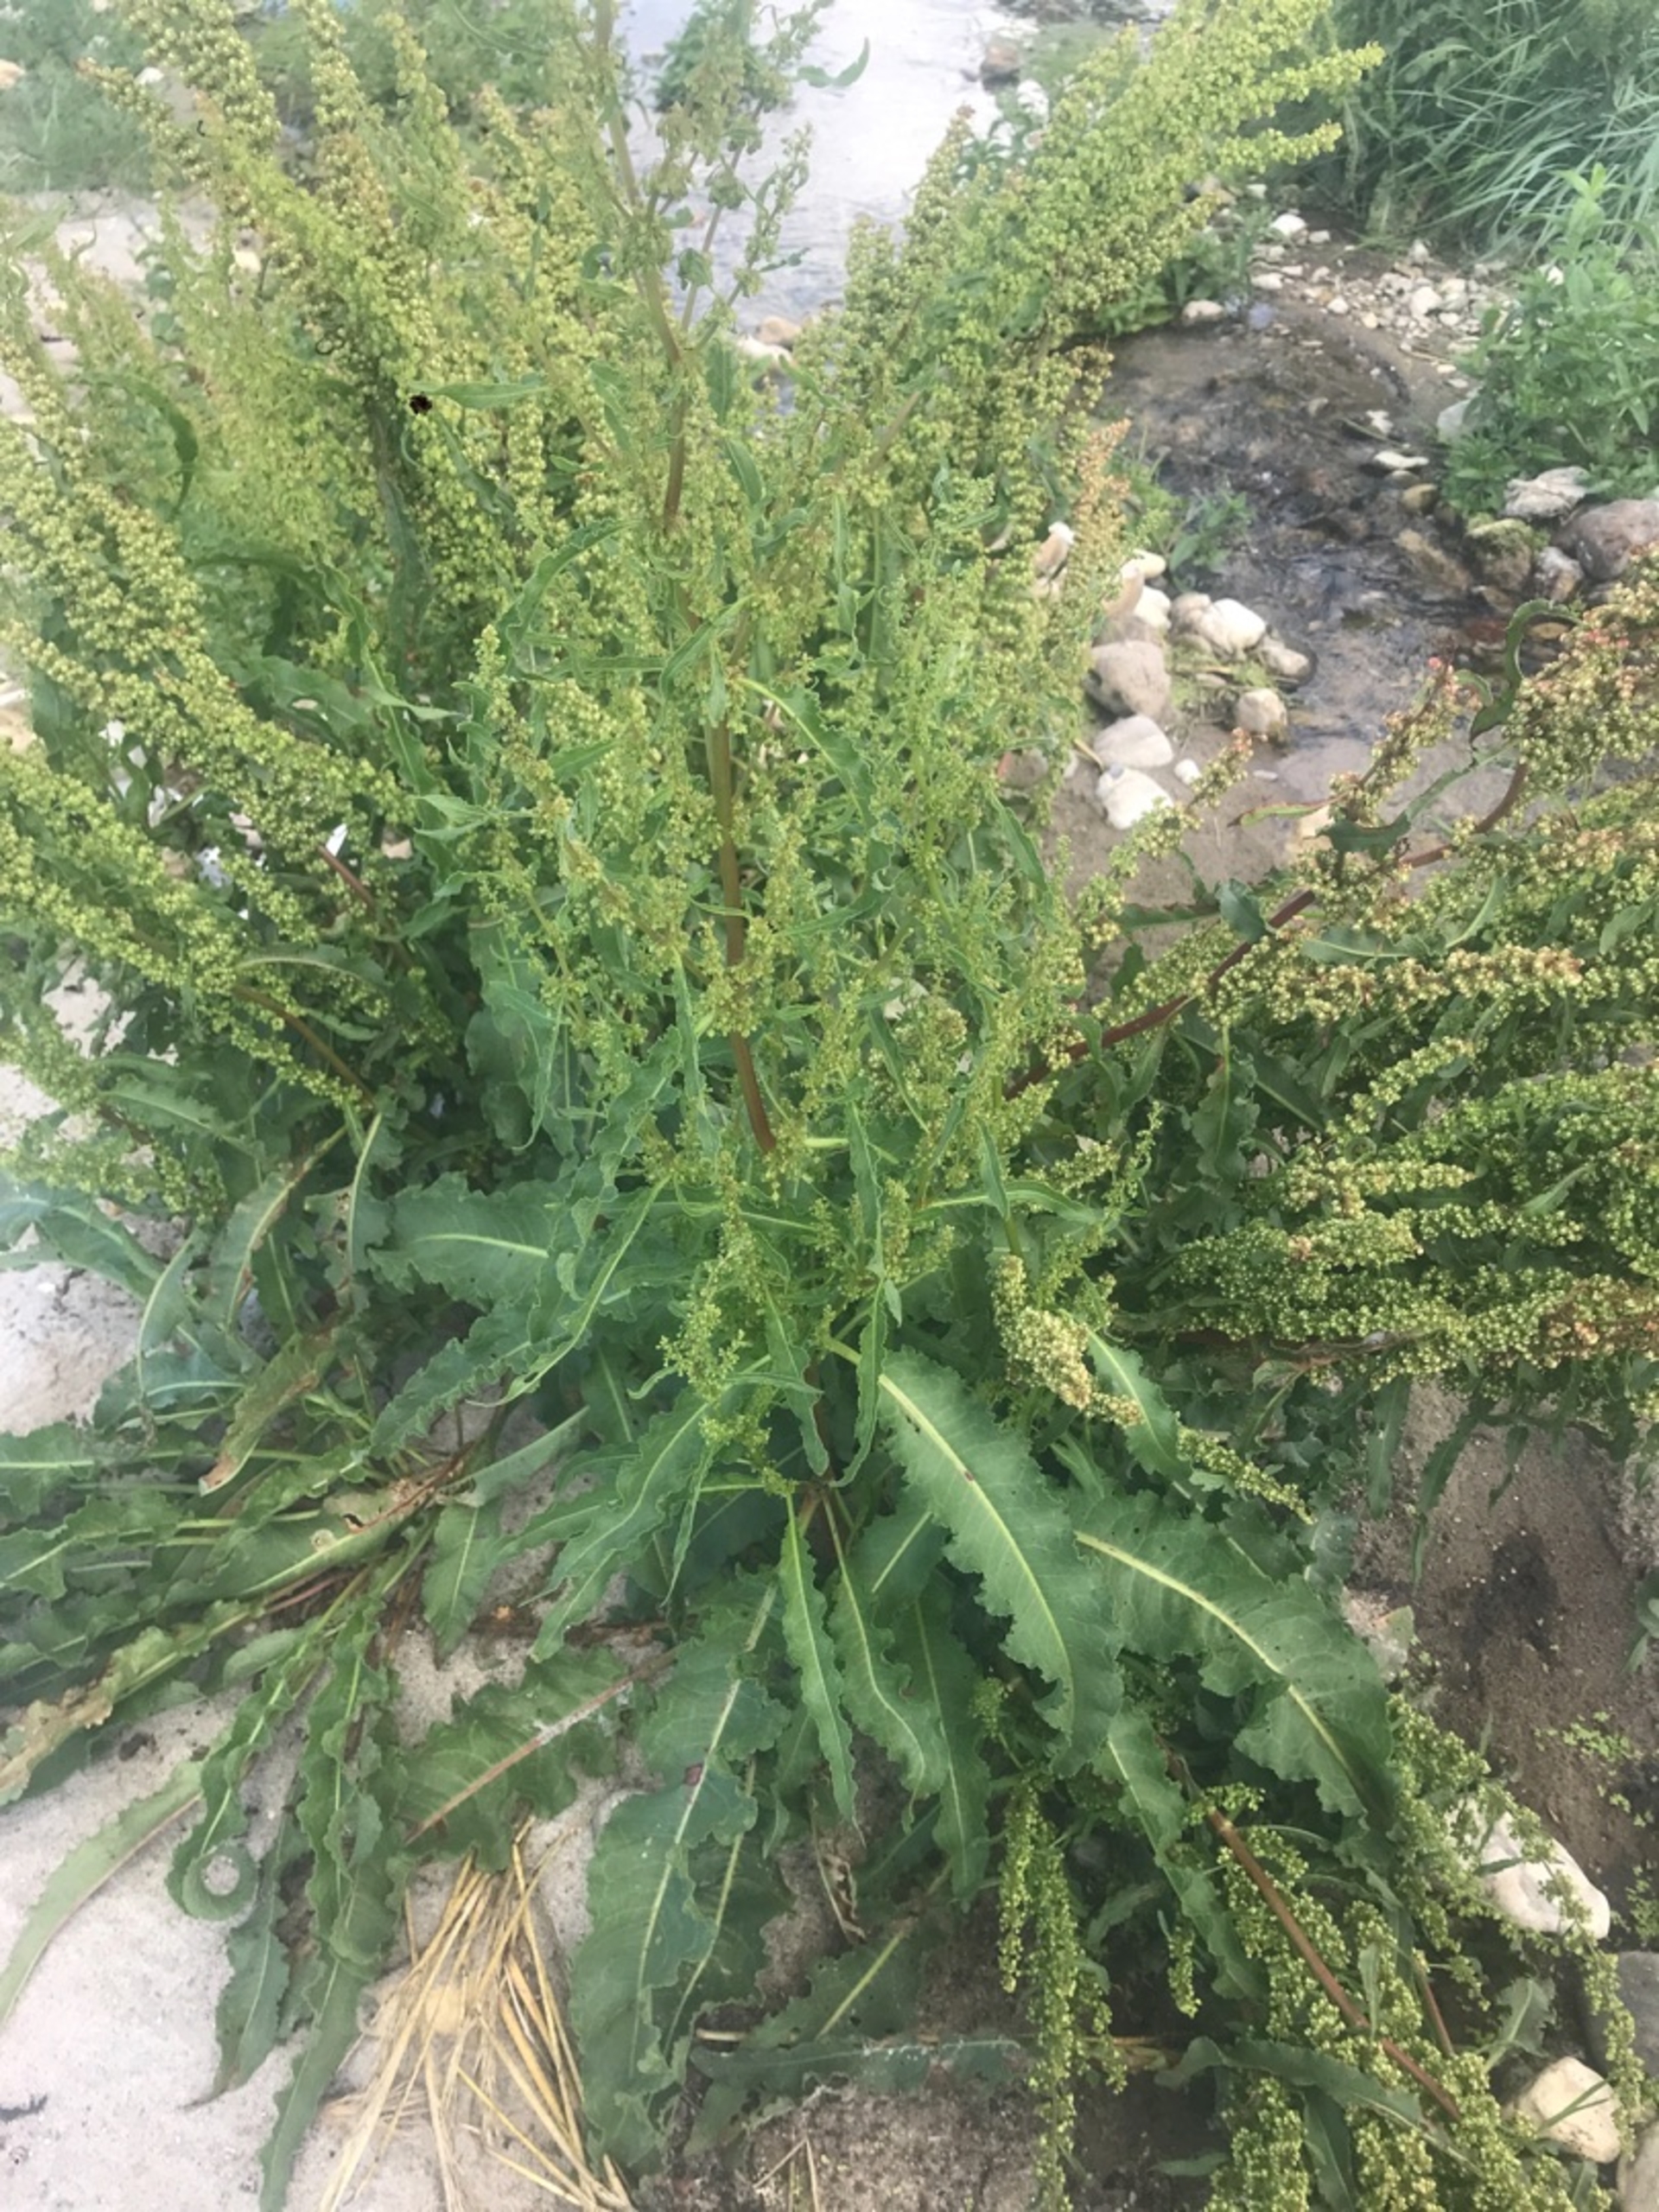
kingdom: Plantae
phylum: Tracheophyta
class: Magnoliopsida
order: Caryophyllales
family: Polygonaceae
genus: Rumex
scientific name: Rumex crispus
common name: Kruset skræppe
